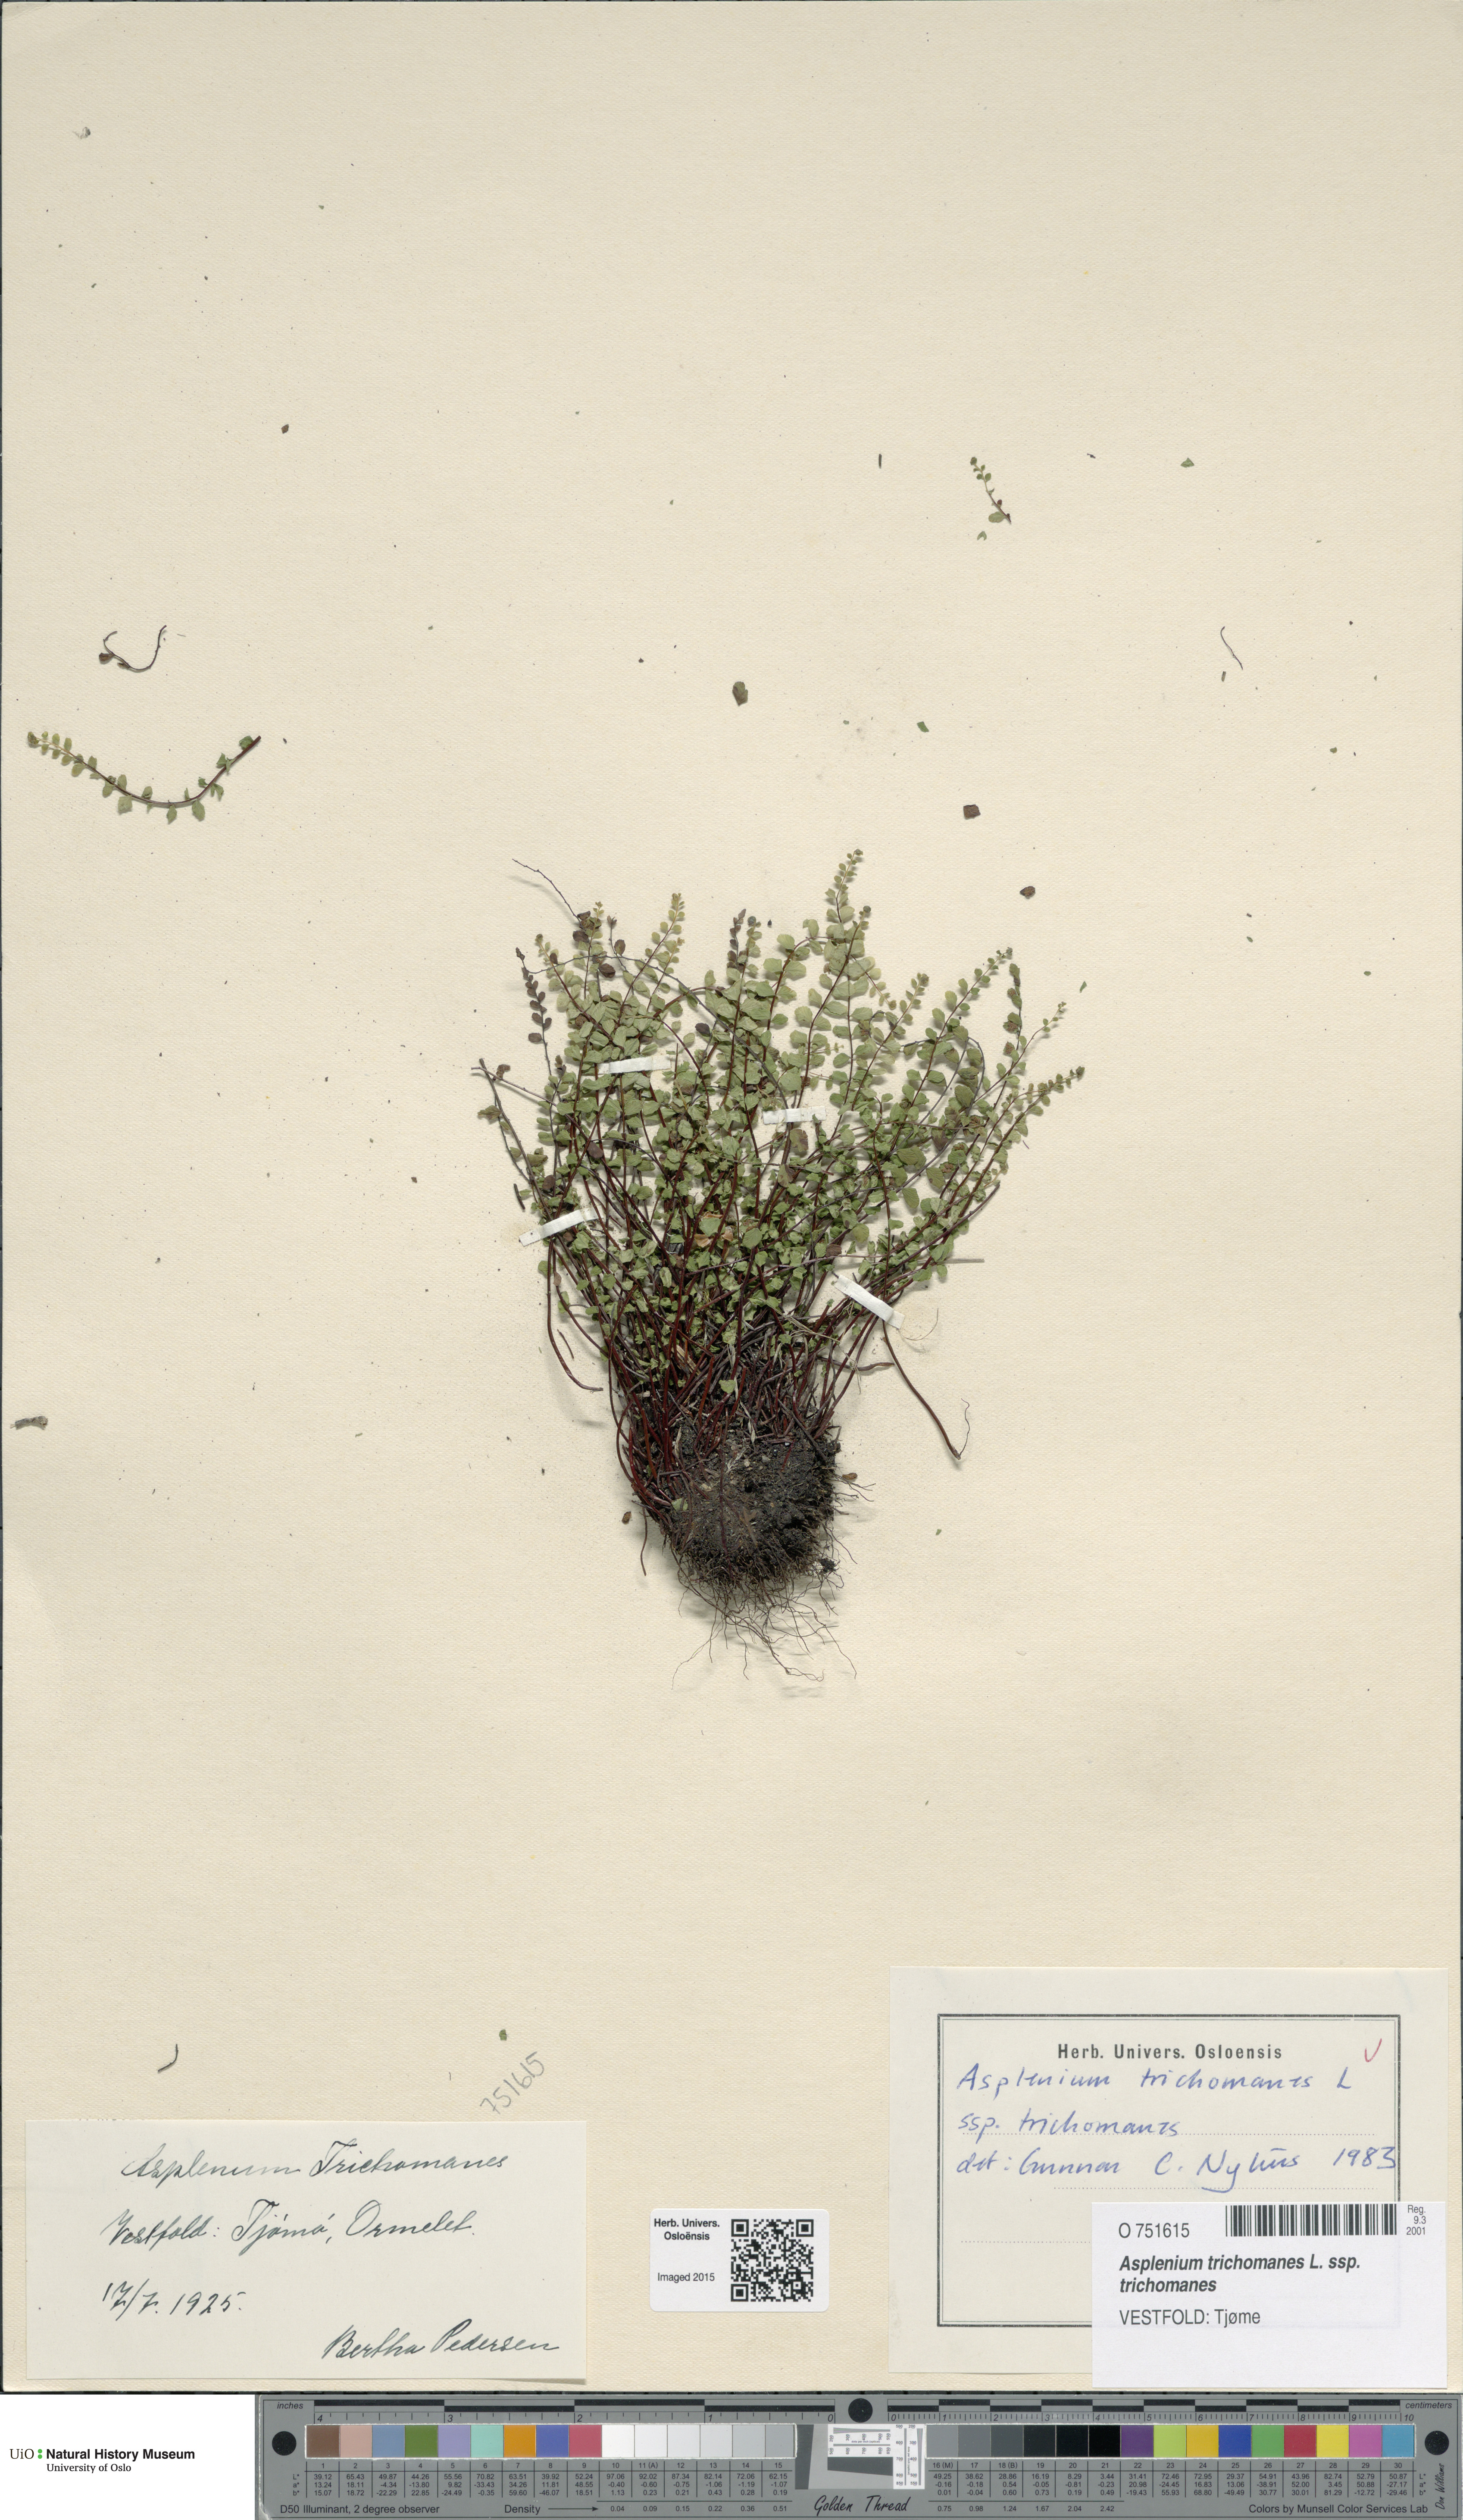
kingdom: Plantae
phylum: Tracheophyta
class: Polypodiopsida
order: Polypodiales
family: Aspleniaceae
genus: Asplenium
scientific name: Asplenium trichomanes
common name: Maidenhair spleenwort
